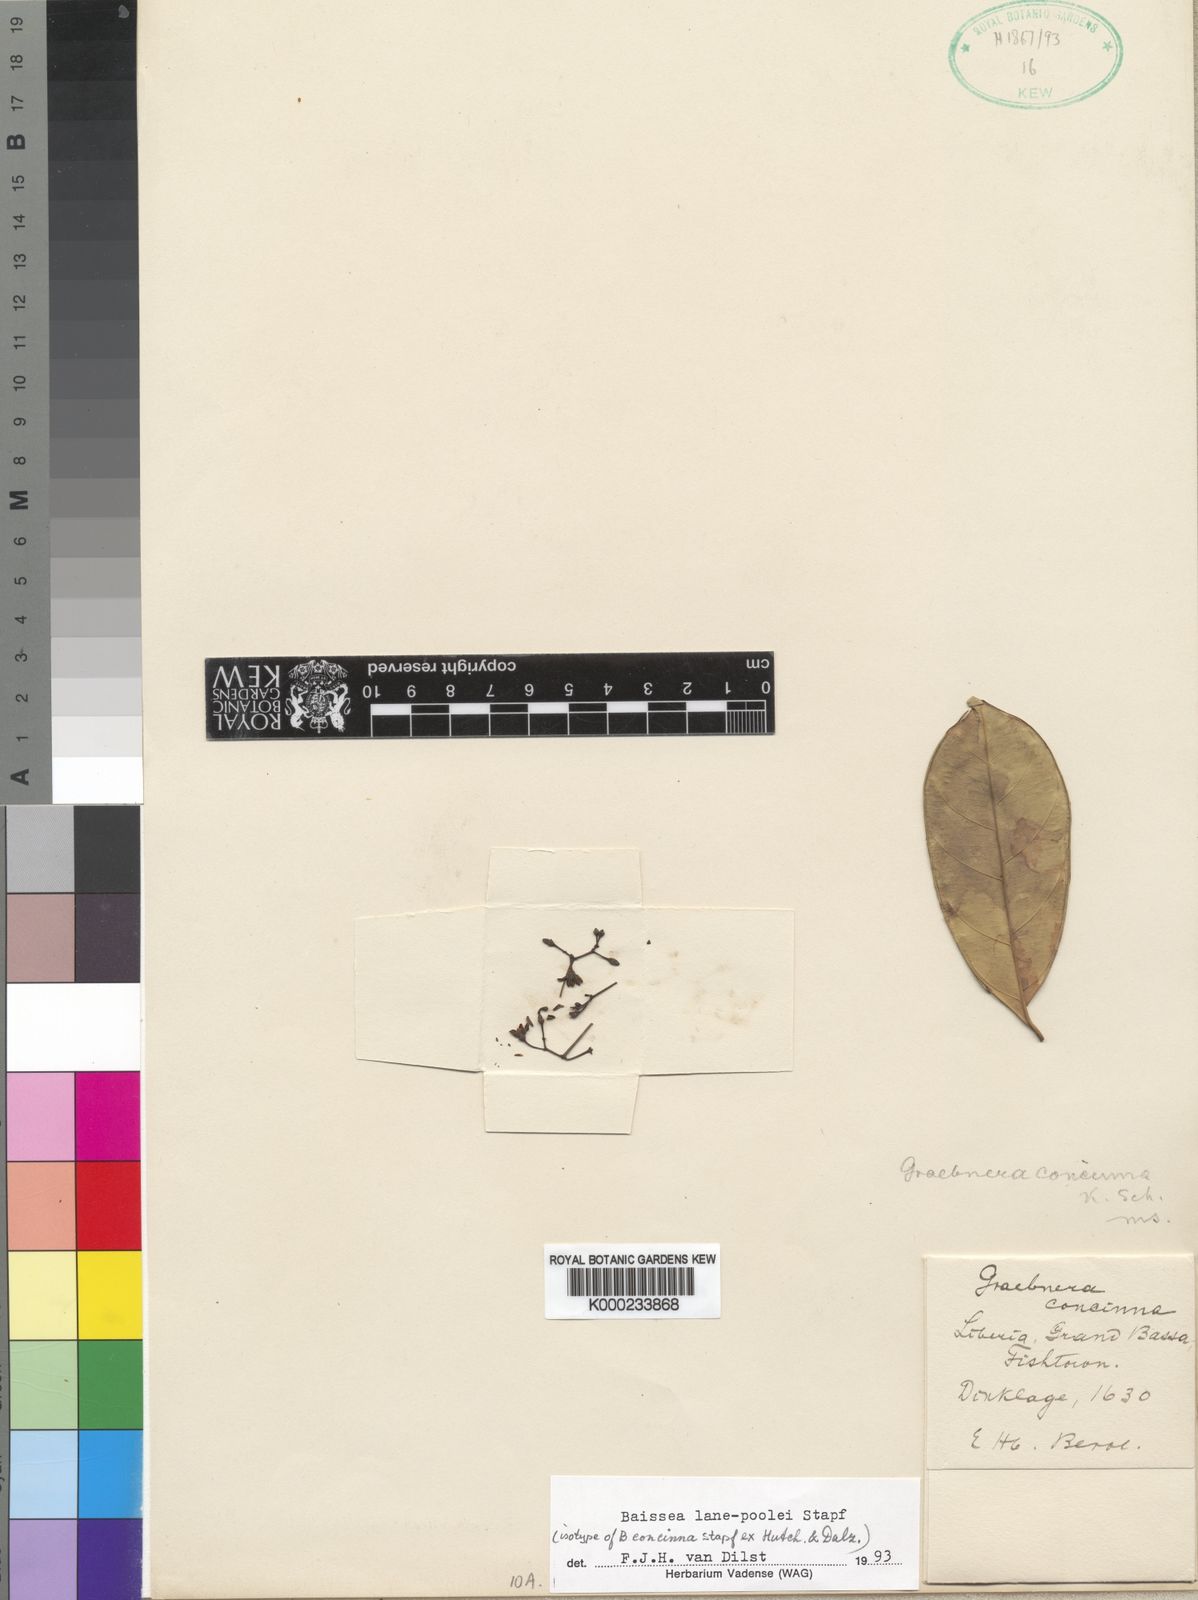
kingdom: Plantae
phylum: Tracheophyta
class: Magnoliopsida
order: Gentianales
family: Apocynaceae
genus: Baissea
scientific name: Baissea lane-poolei
